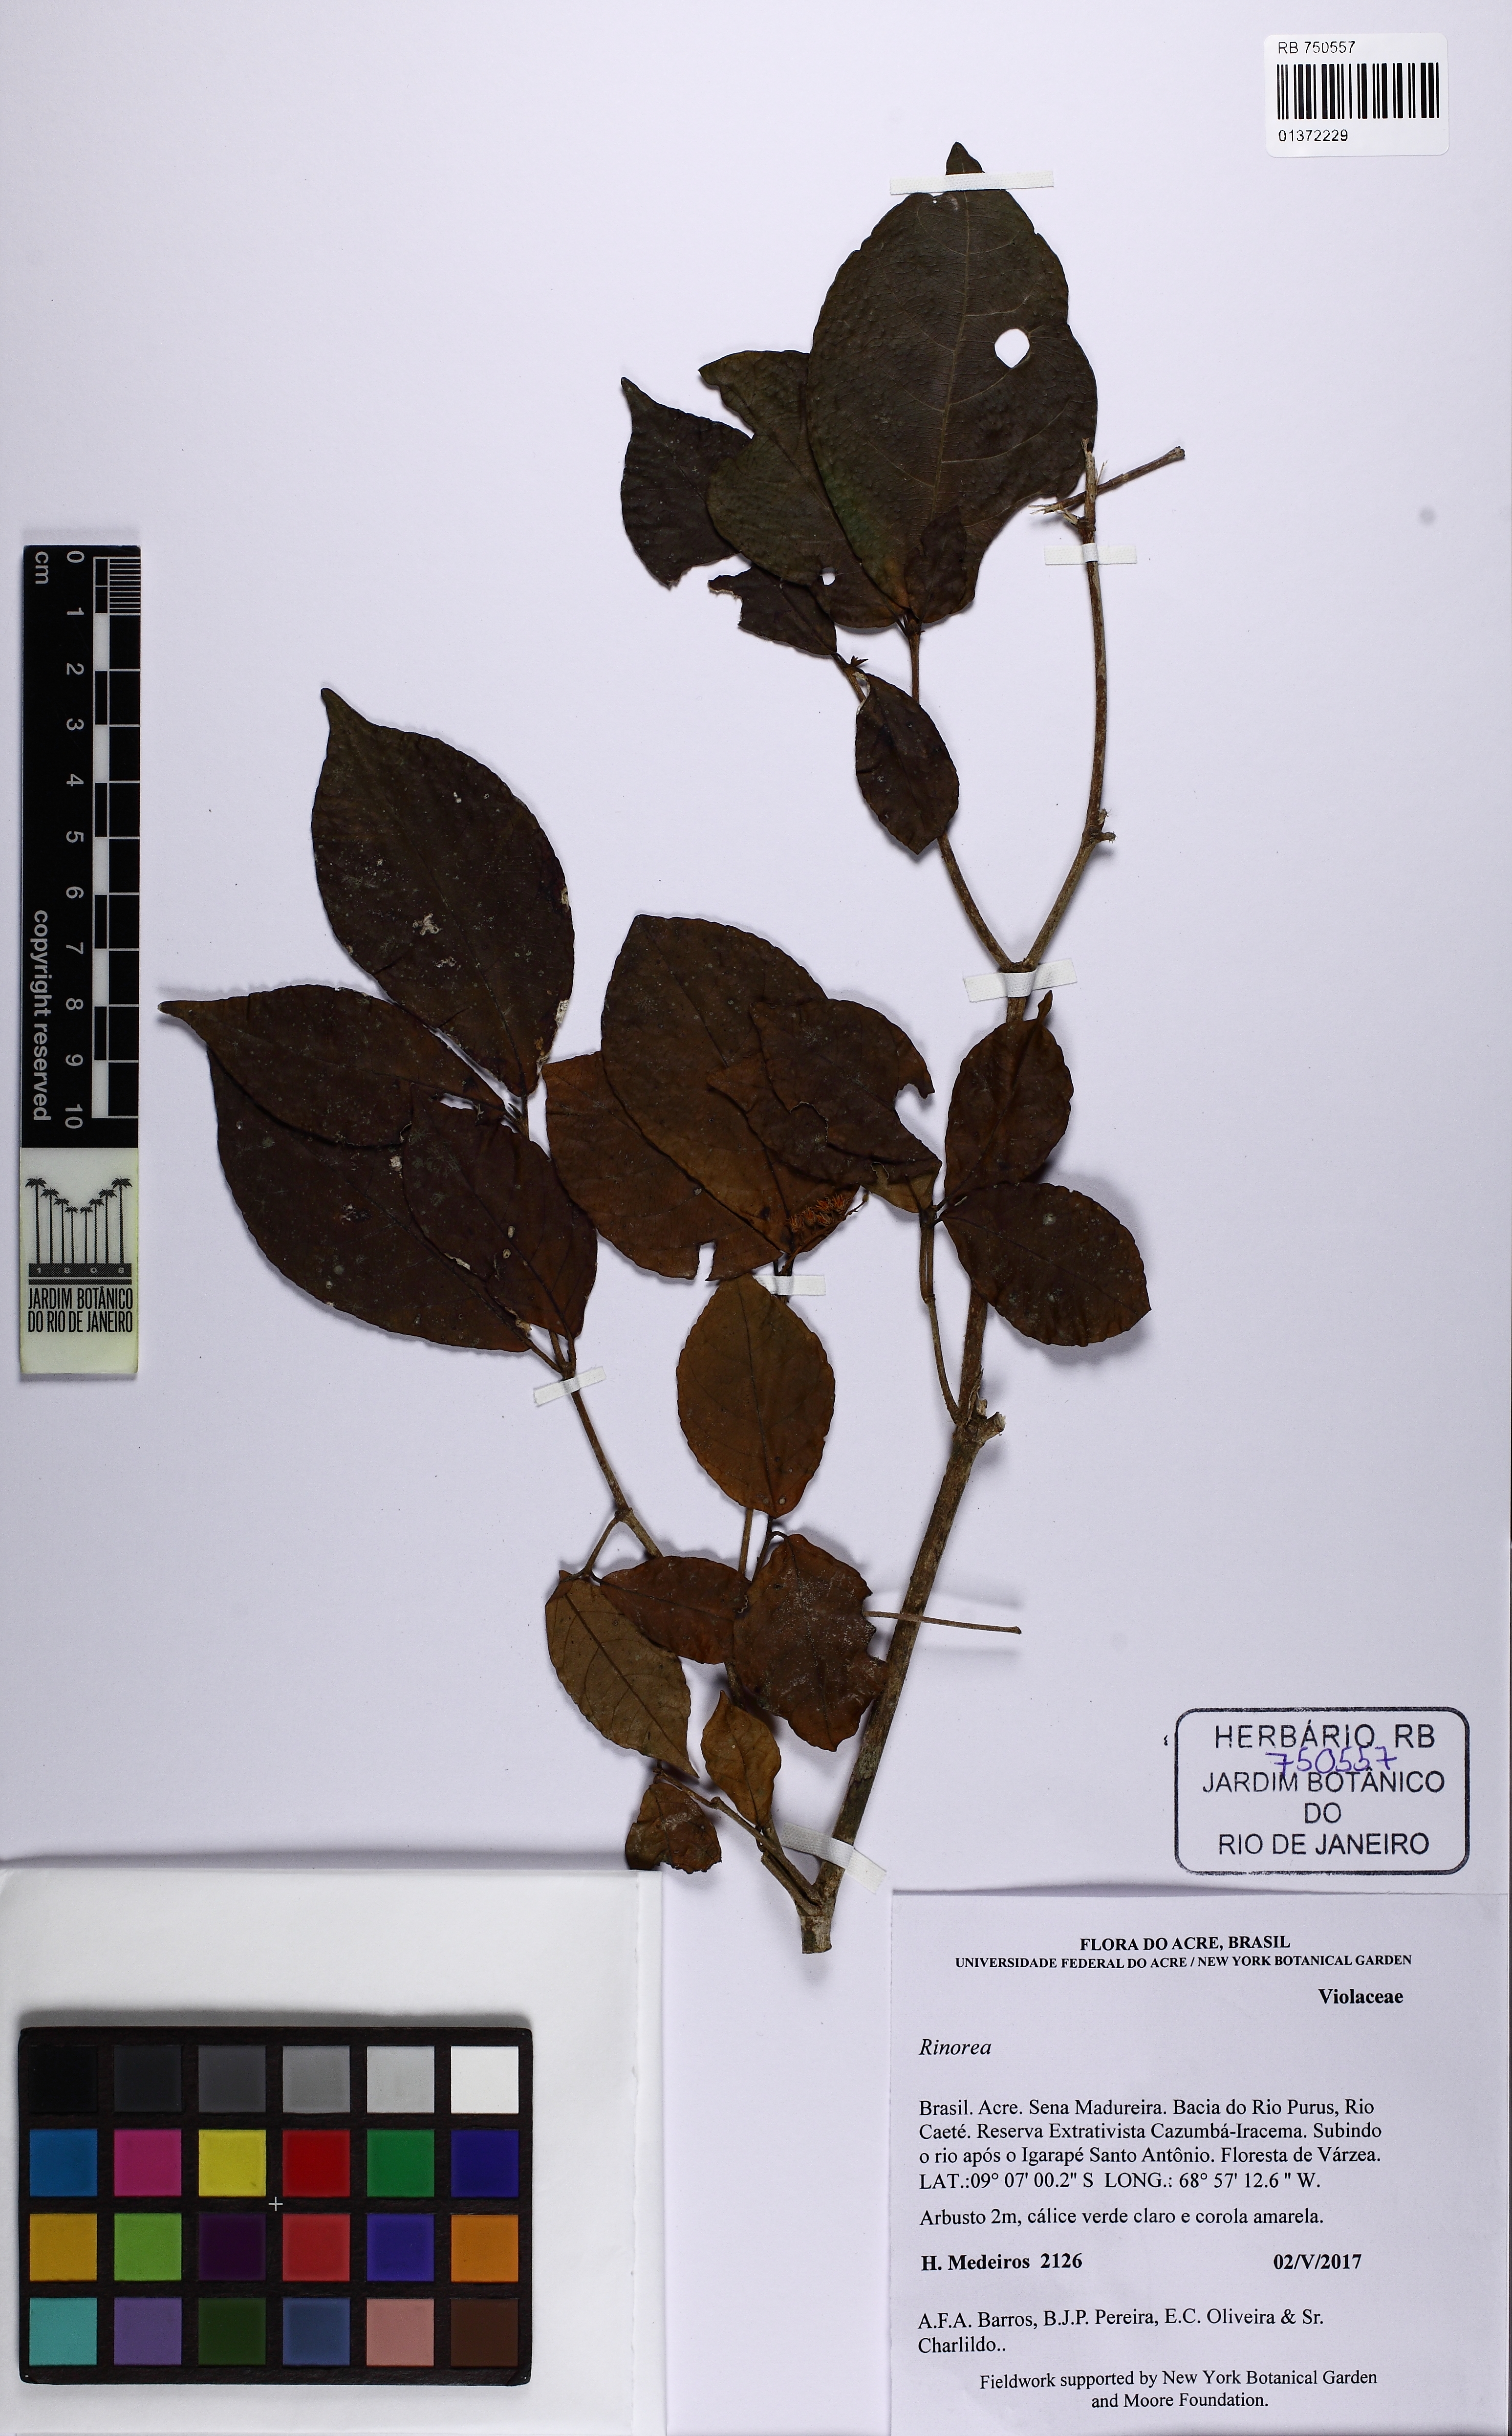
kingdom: Plantae
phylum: Tracheophyta
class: Magnoliopsida
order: Malpighiales
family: Violaceae
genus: Rinorea
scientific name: Rinorea
